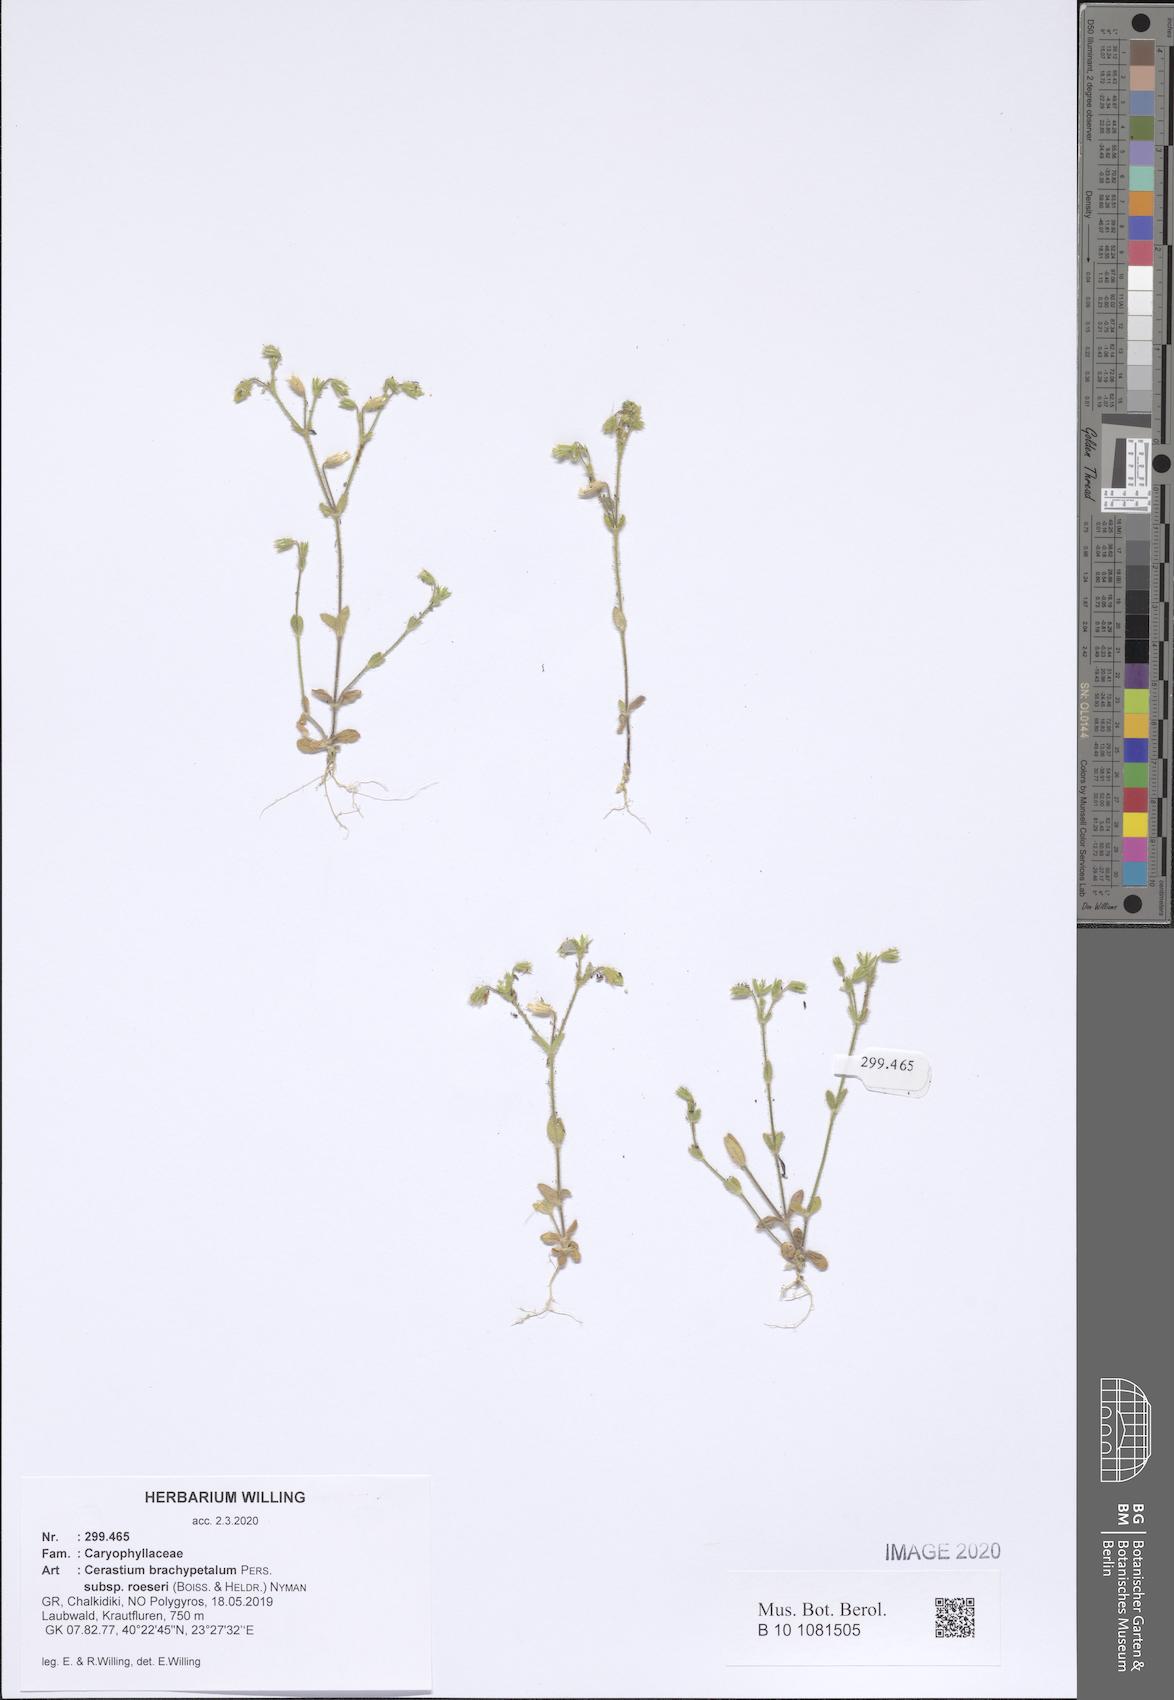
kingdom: Plantae
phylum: Tracheophyta
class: Magnoliopsida
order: Caryophyllales
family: Caryophyllaceae
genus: Cerastium
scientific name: Cerastium brachypetalum
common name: Grey mouse-ear
